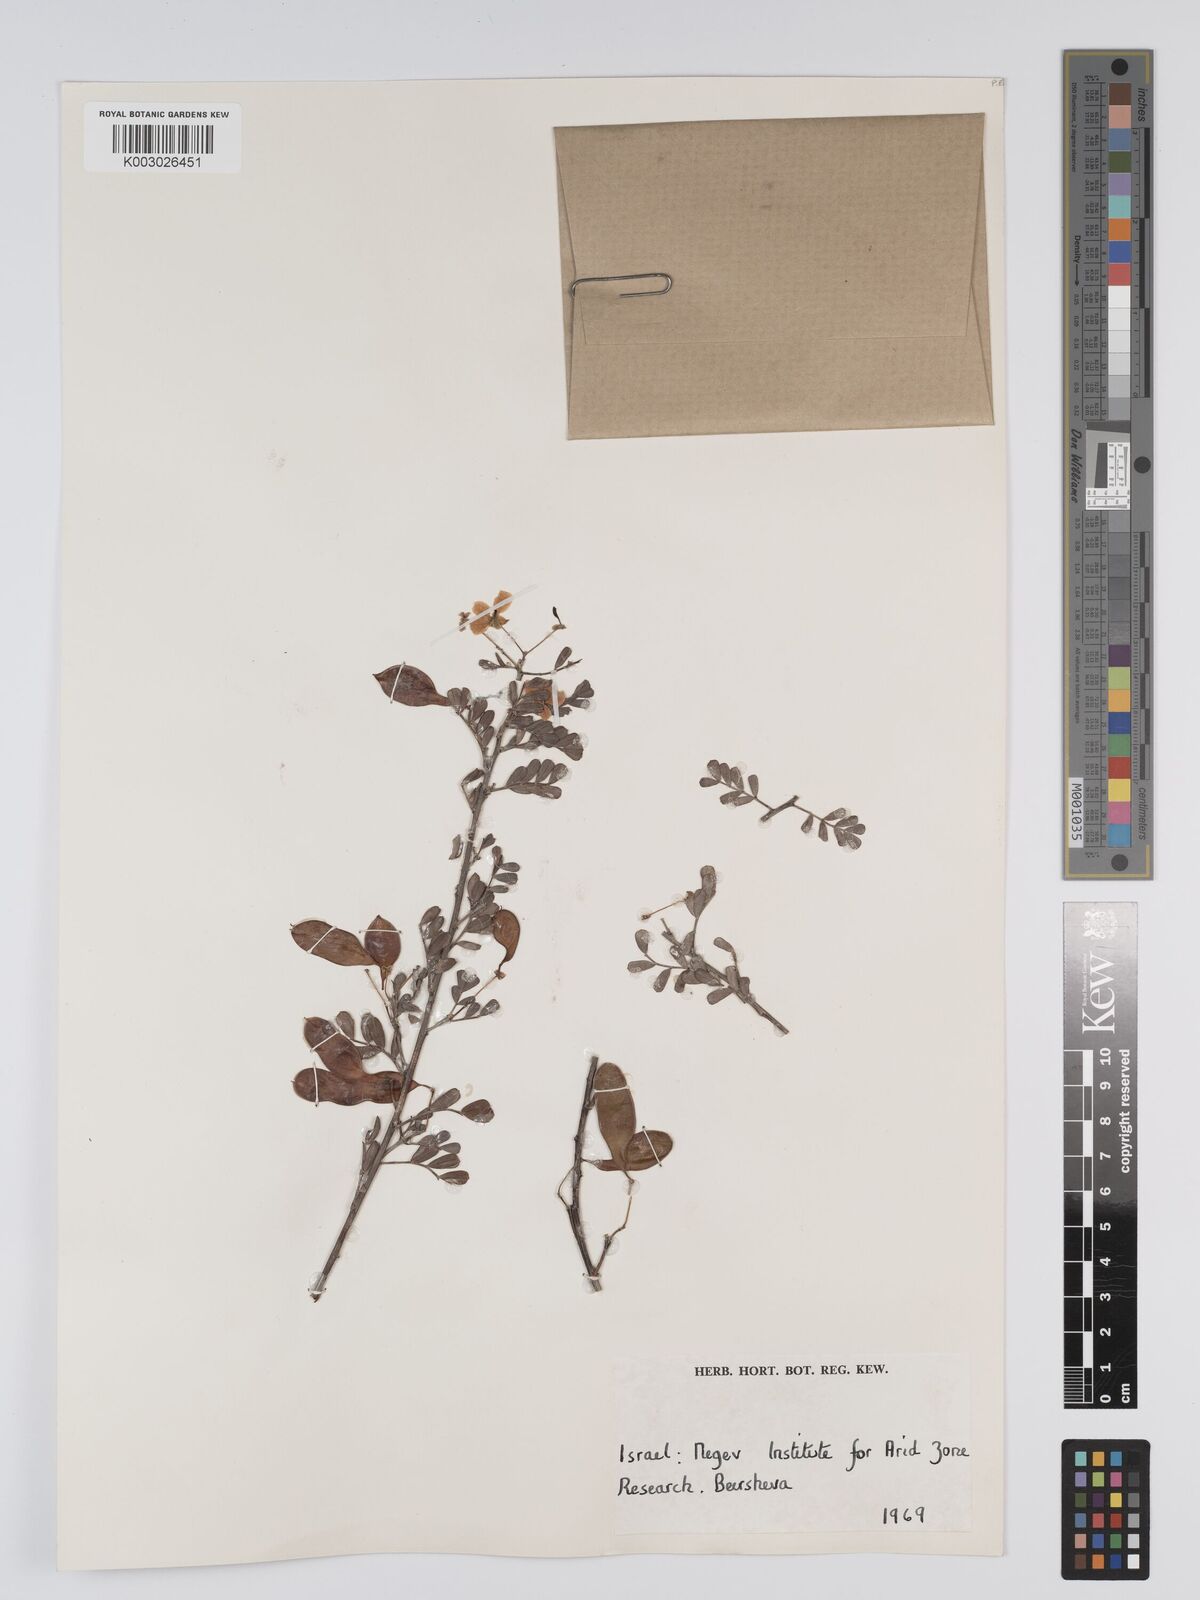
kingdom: Plantae
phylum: Tracheophyta
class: Magnoliopsida
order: Fabales
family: Fabaceae
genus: Cassia
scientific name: Cassia
